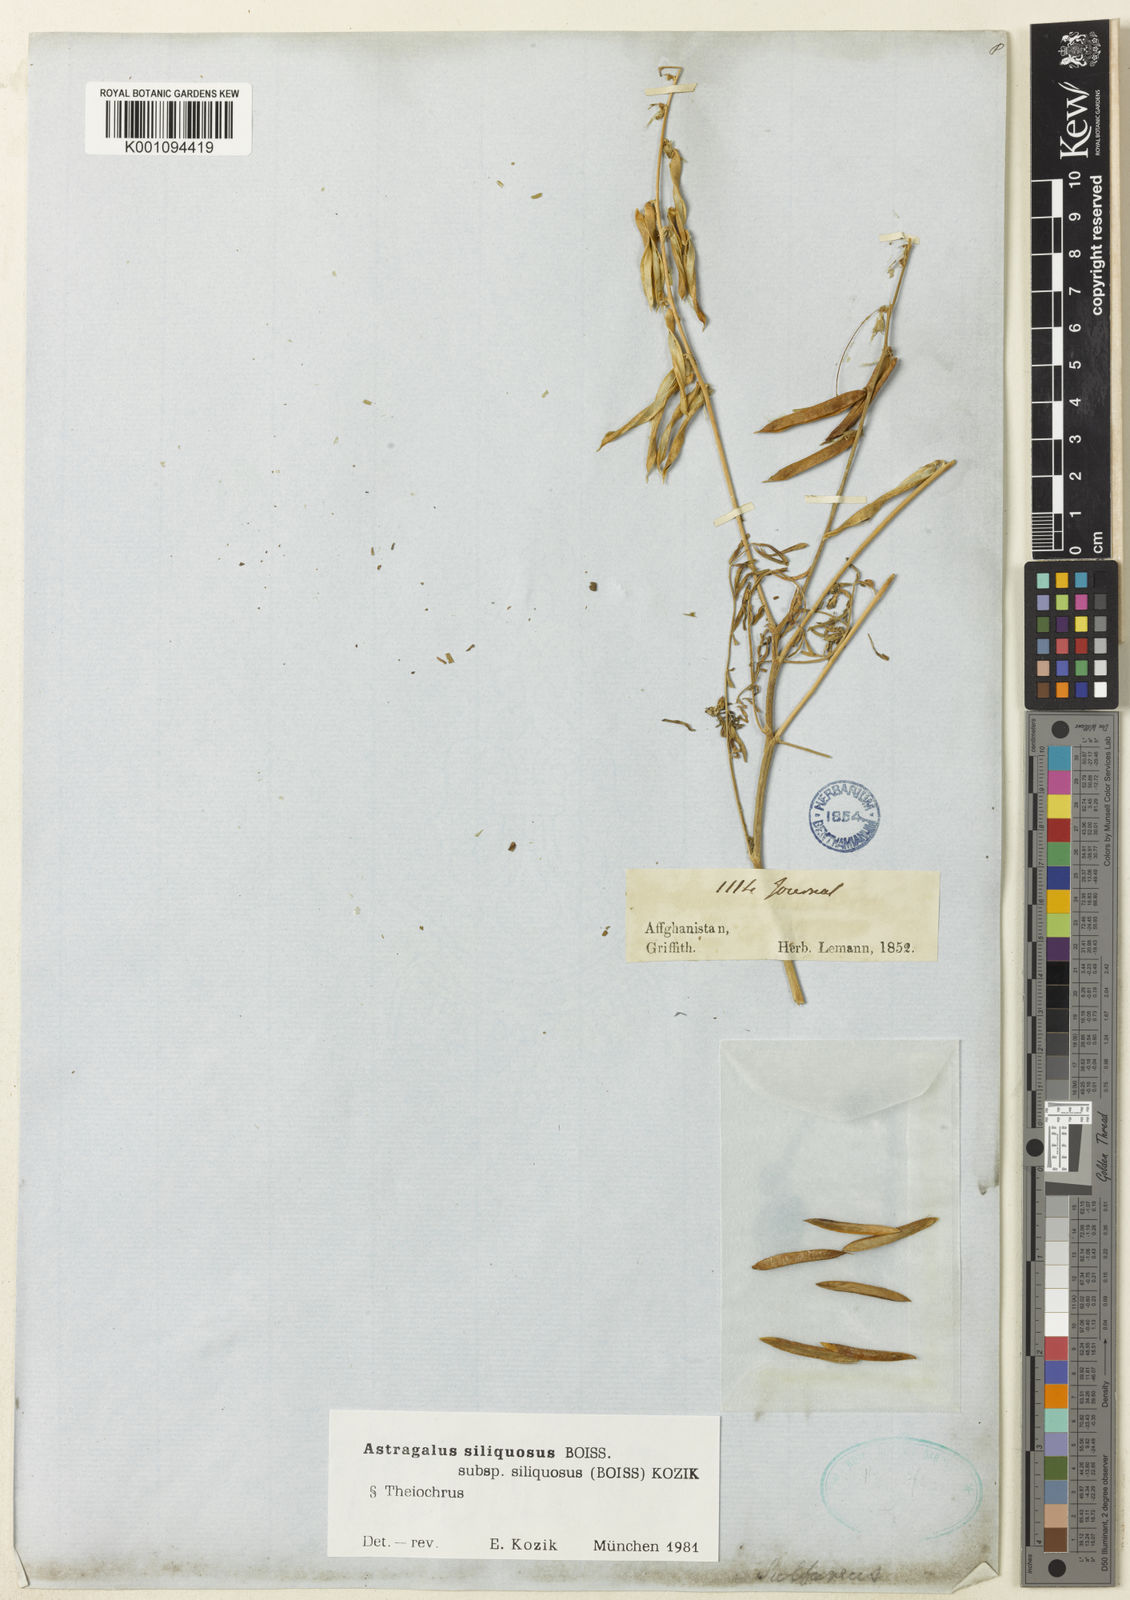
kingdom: Plantae
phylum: Tracheophyta
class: Magnoliopsida
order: Fabales
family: Fabaceae
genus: Astragalus
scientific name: Astragalus
